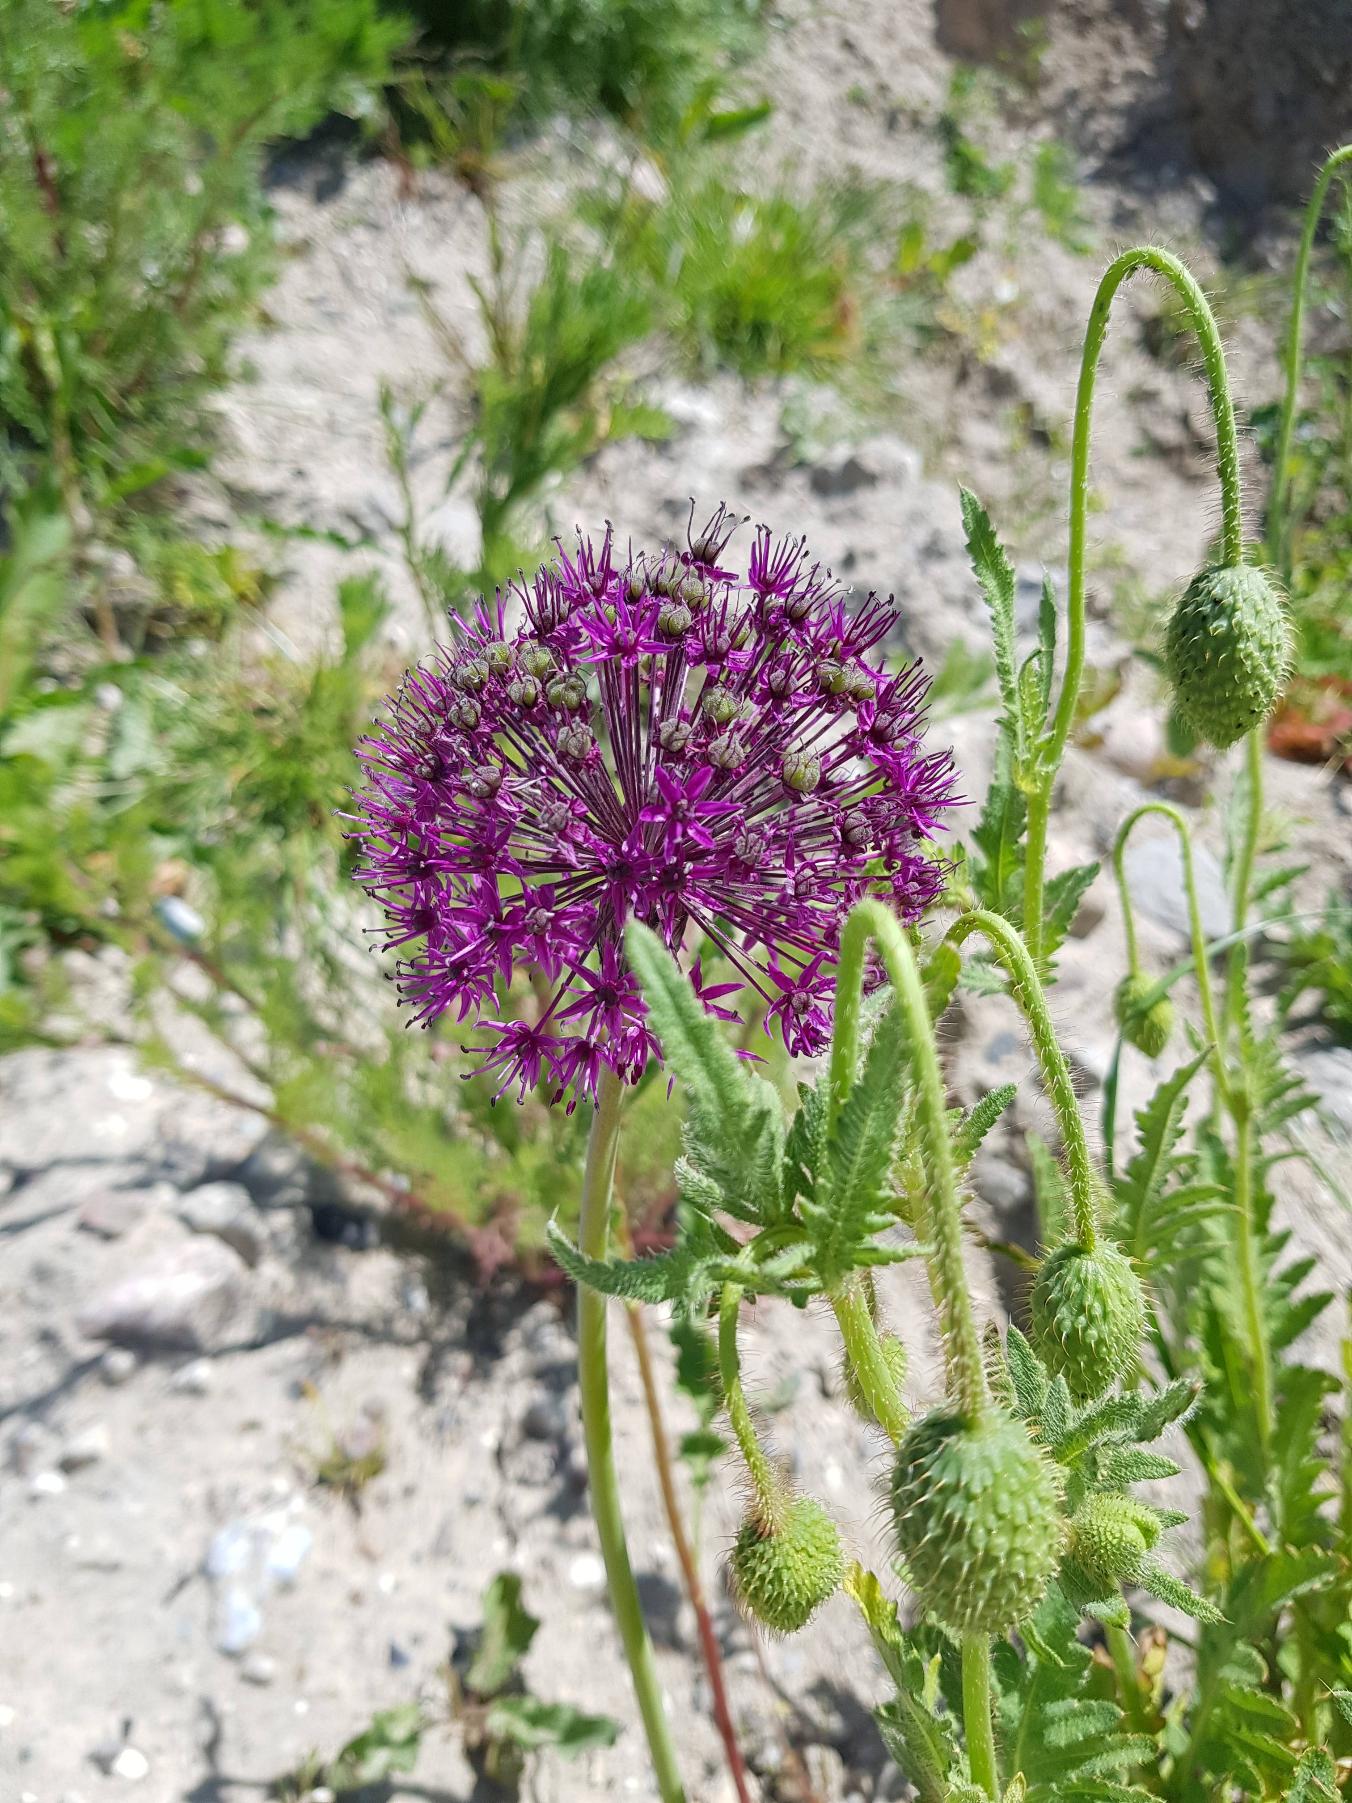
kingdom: Plantae
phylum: Tracheophyta
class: Liliopsida
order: Asparagales
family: Amaryllidaceae
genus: Allium
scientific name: Allium hollandicum
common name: Kirgisisk pryd-løg
